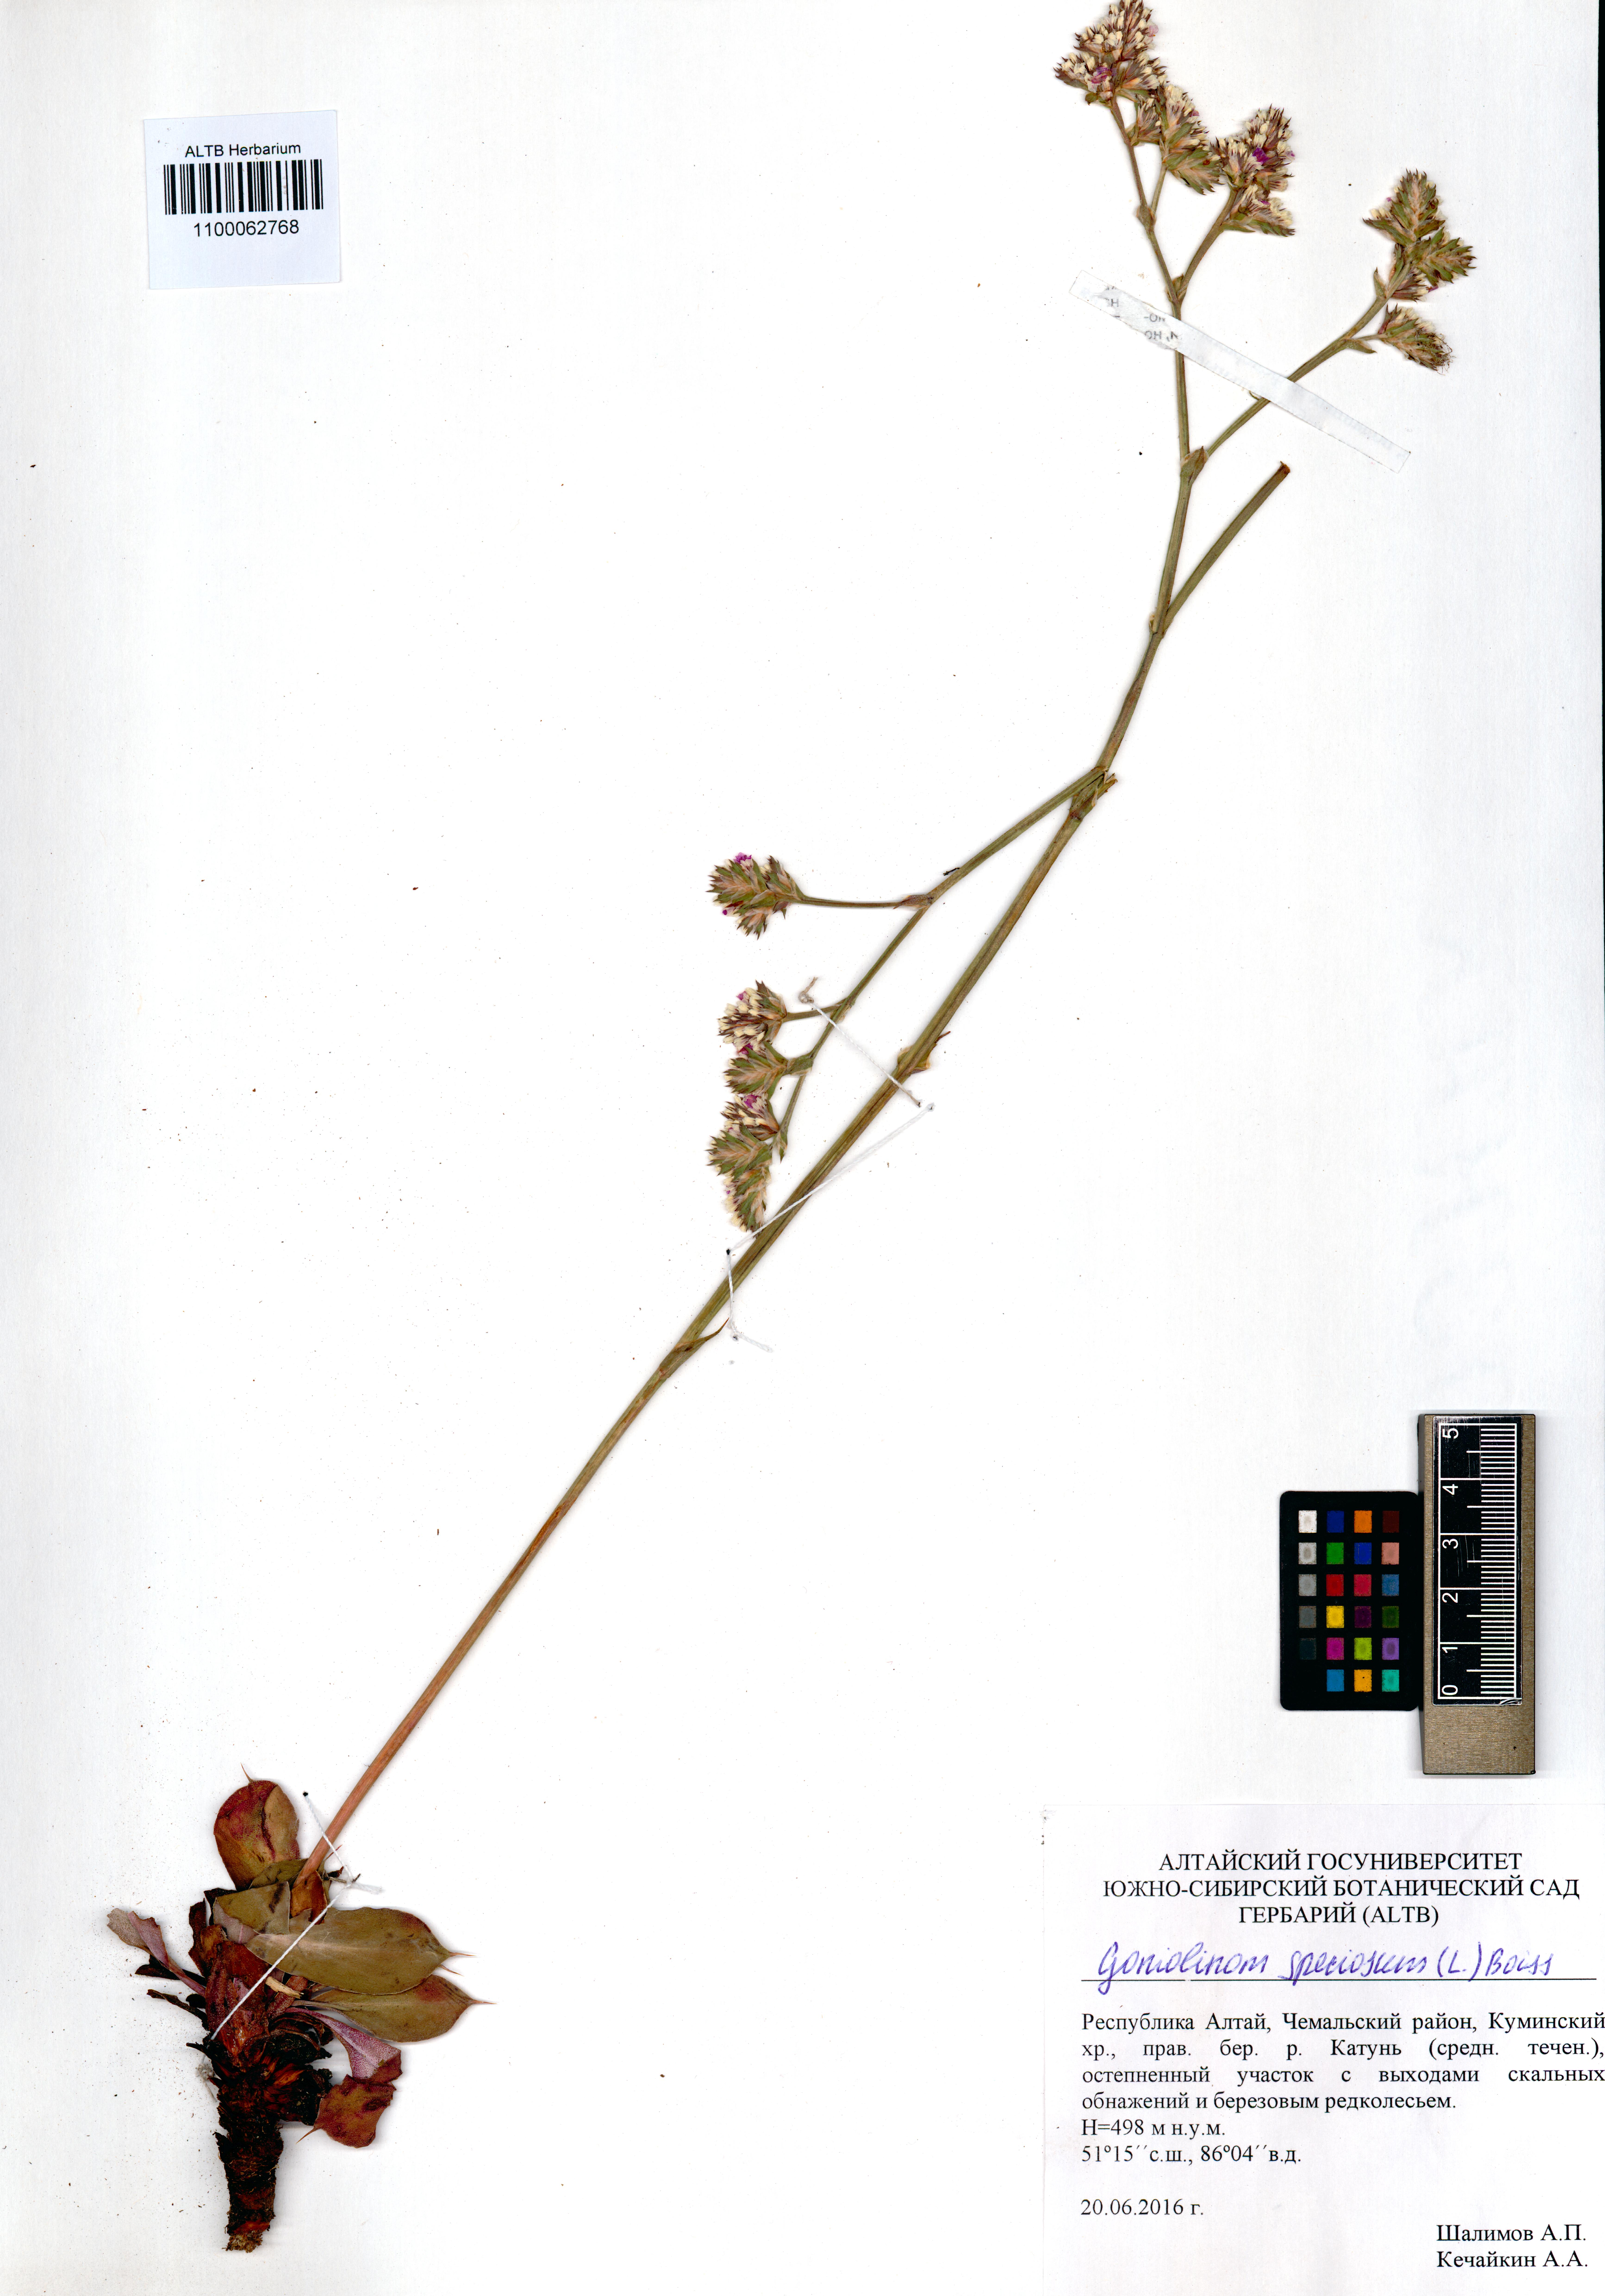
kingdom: Plantae
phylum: Tracheophyta
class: Magnoliopsida
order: Caryophyllales
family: Plumbaginaceae
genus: Goniolimon
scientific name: Goniolimon speciosum
